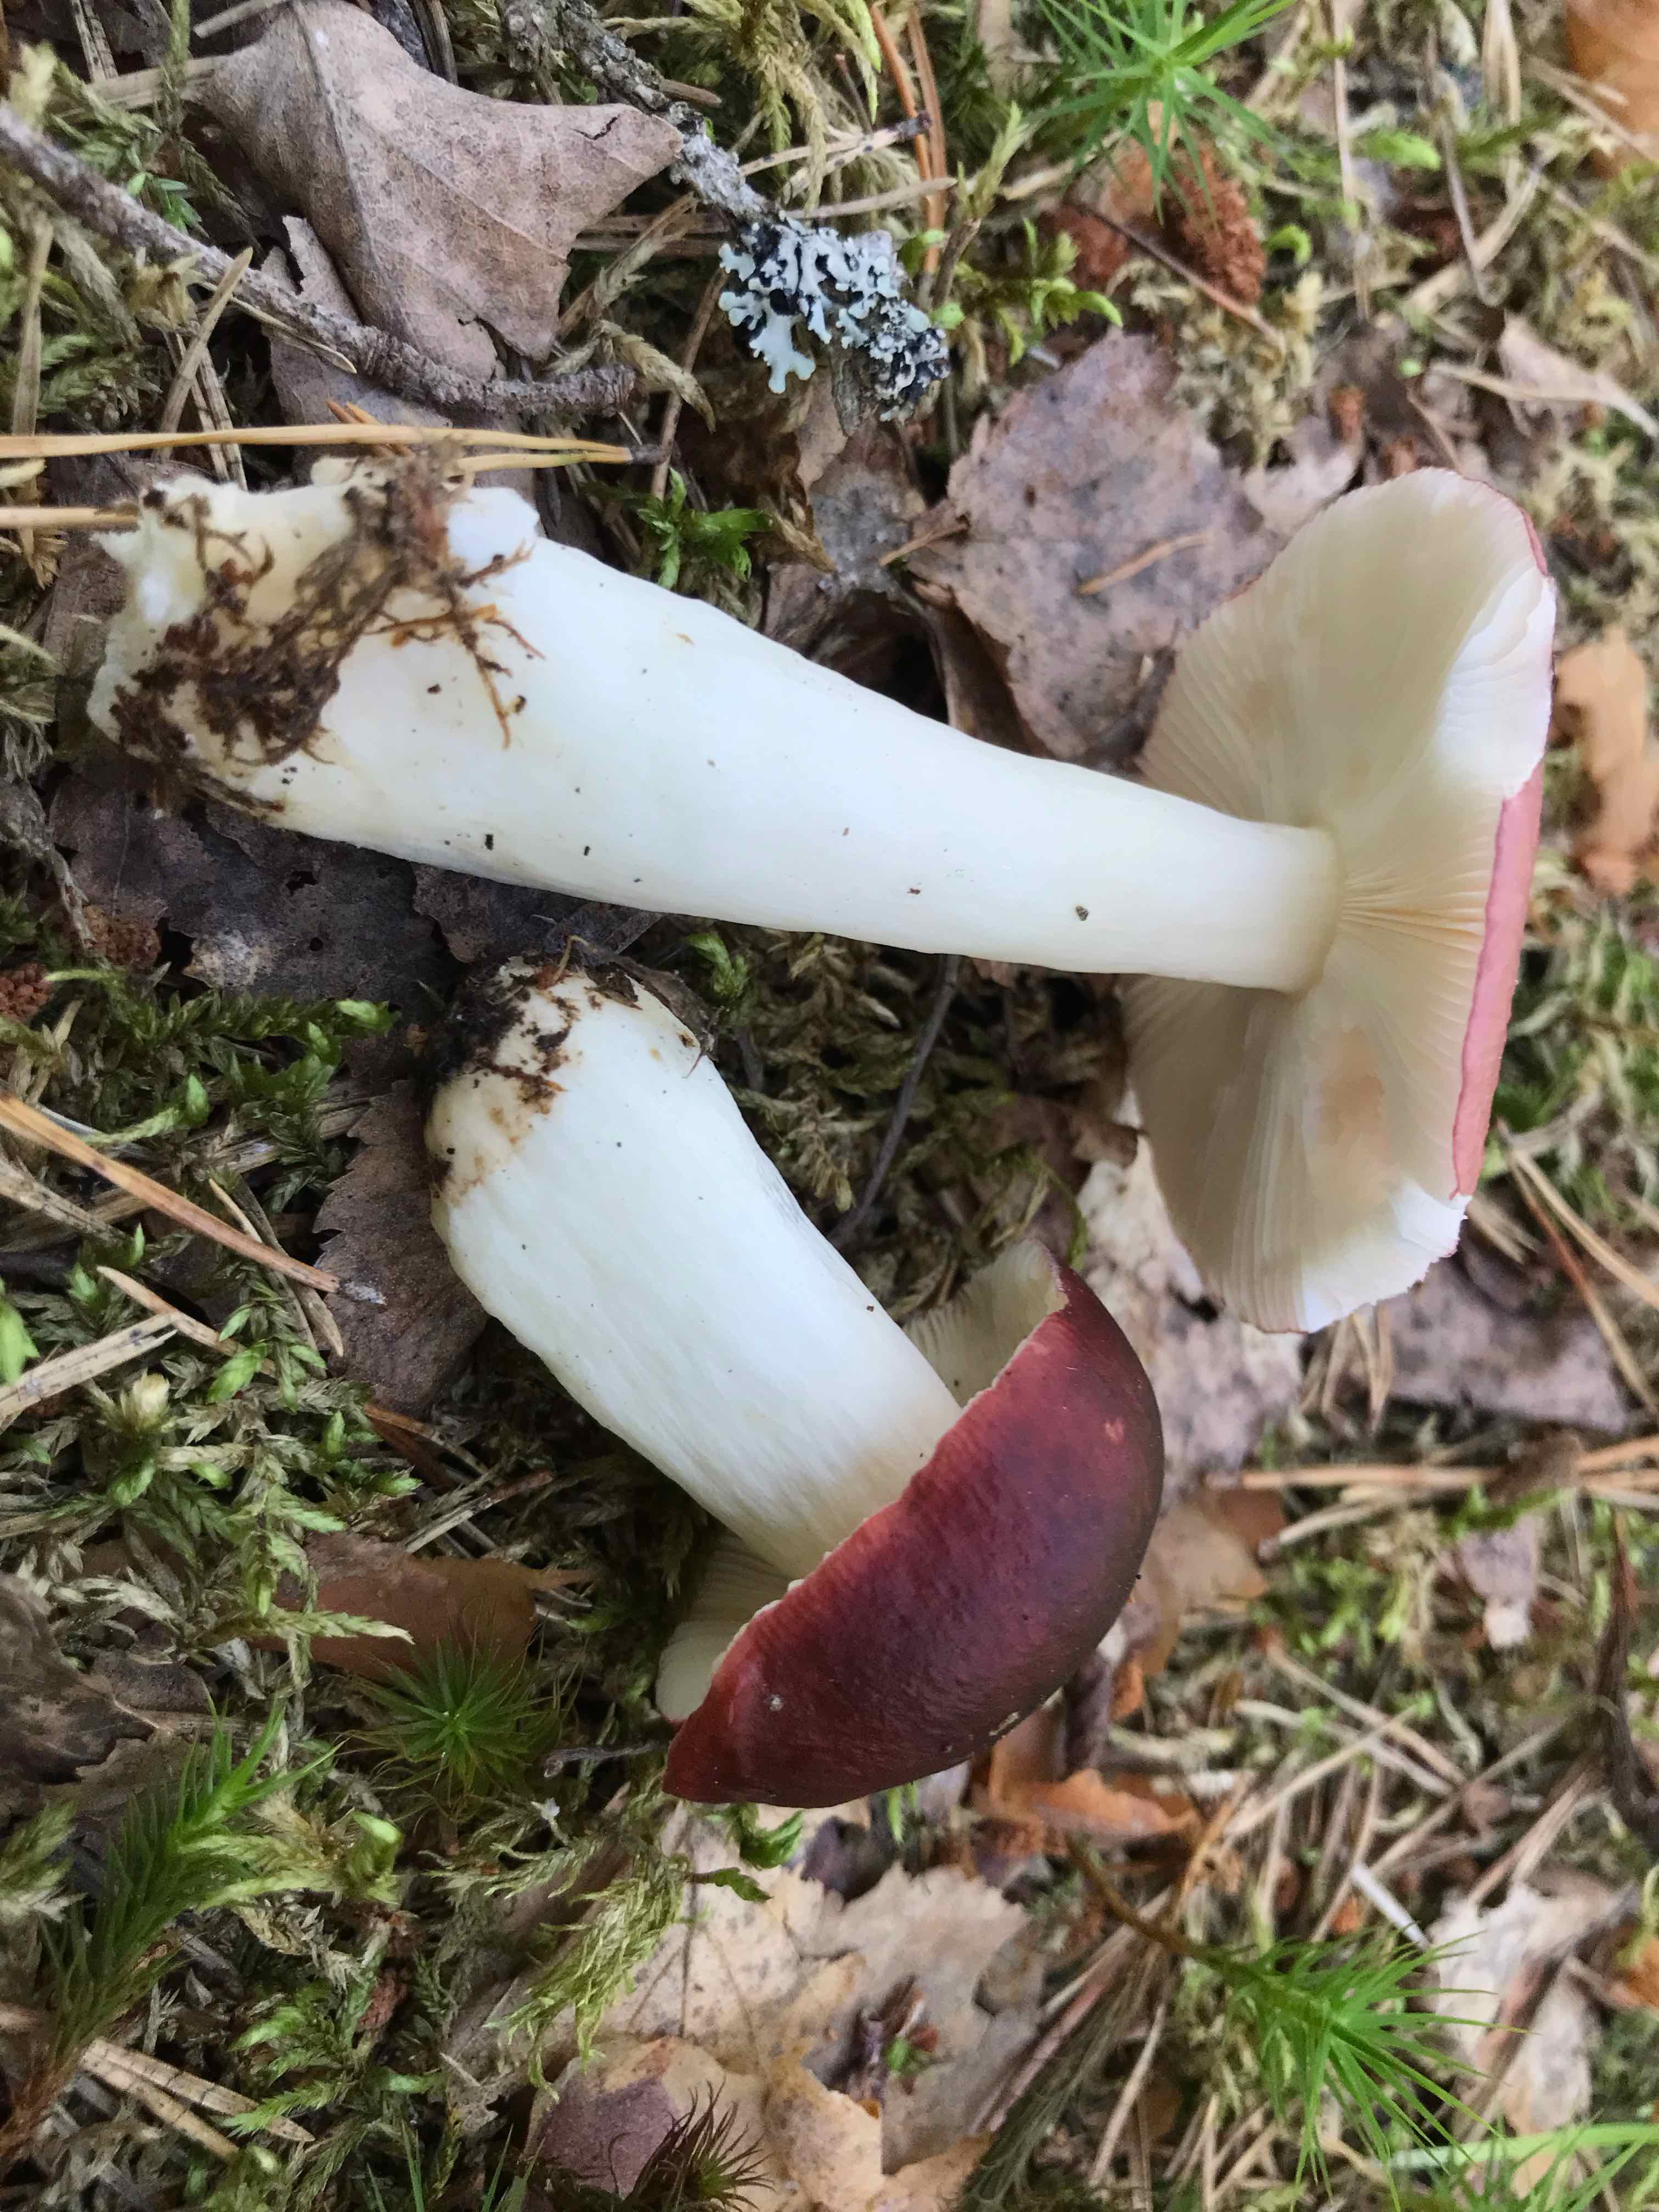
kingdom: Fungi
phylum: Basidiomycota
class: Agaricomycetes
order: Russulales
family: Russulaceae
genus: Russula
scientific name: Russula
